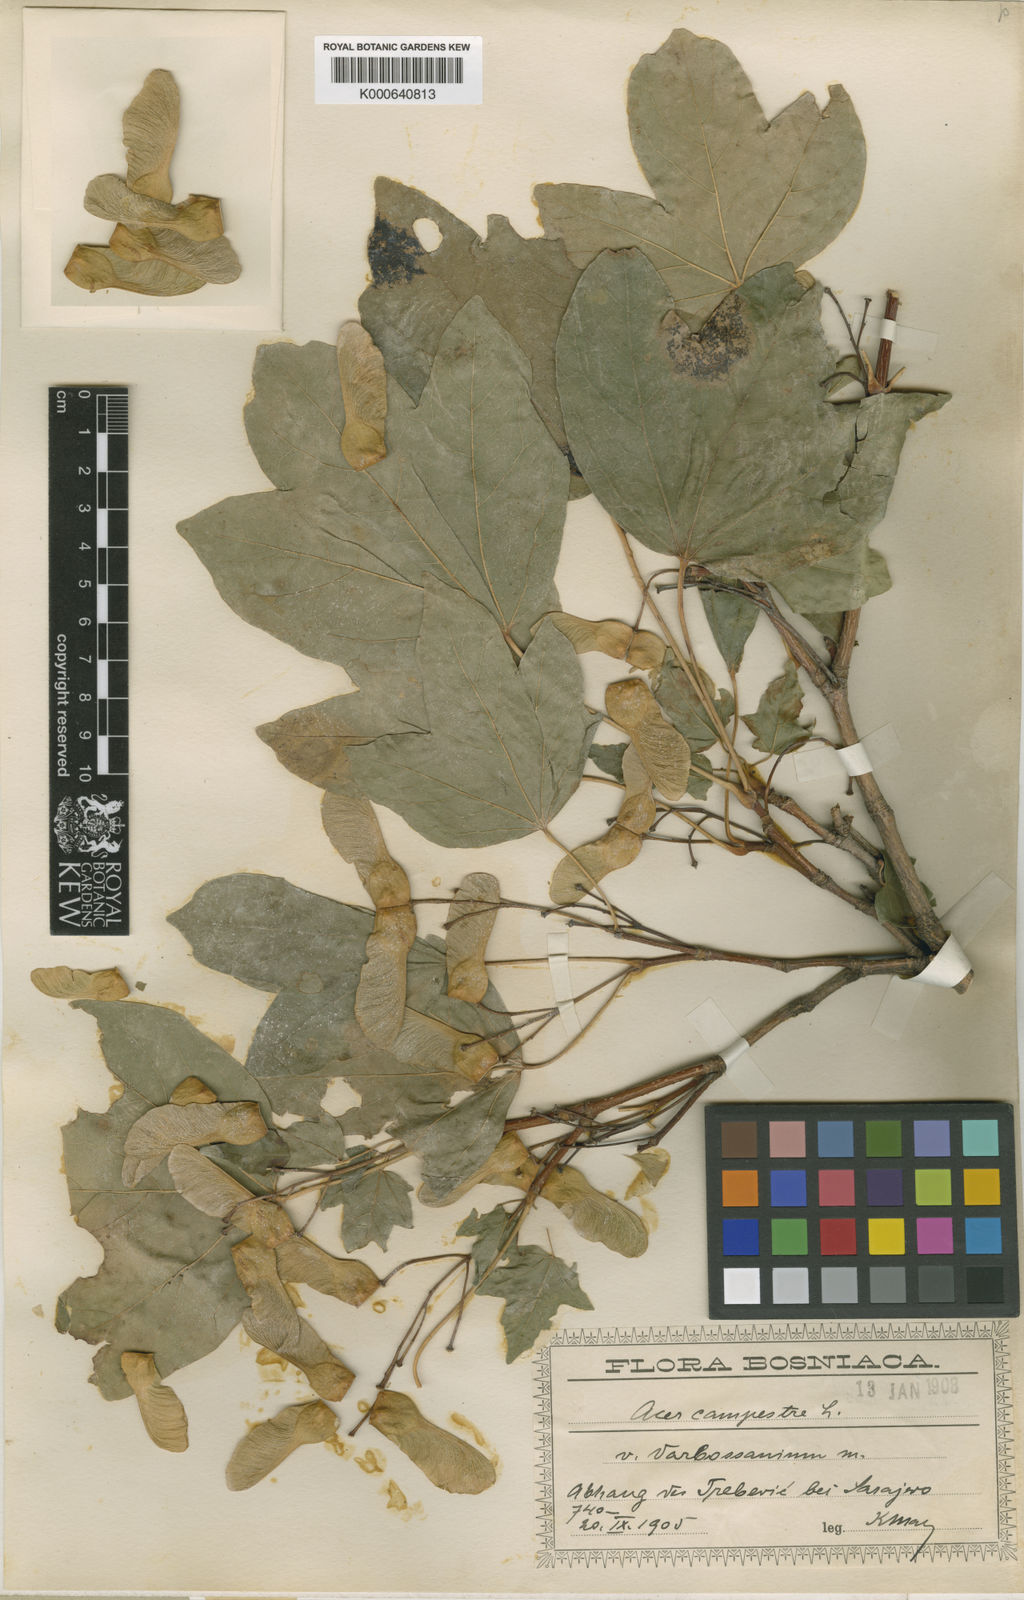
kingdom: Plantae
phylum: Tracheophyta
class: Magnoliopsida
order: Sapindales
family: Sapindaceae
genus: Acer
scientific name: Acer campestre
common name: Field maple
